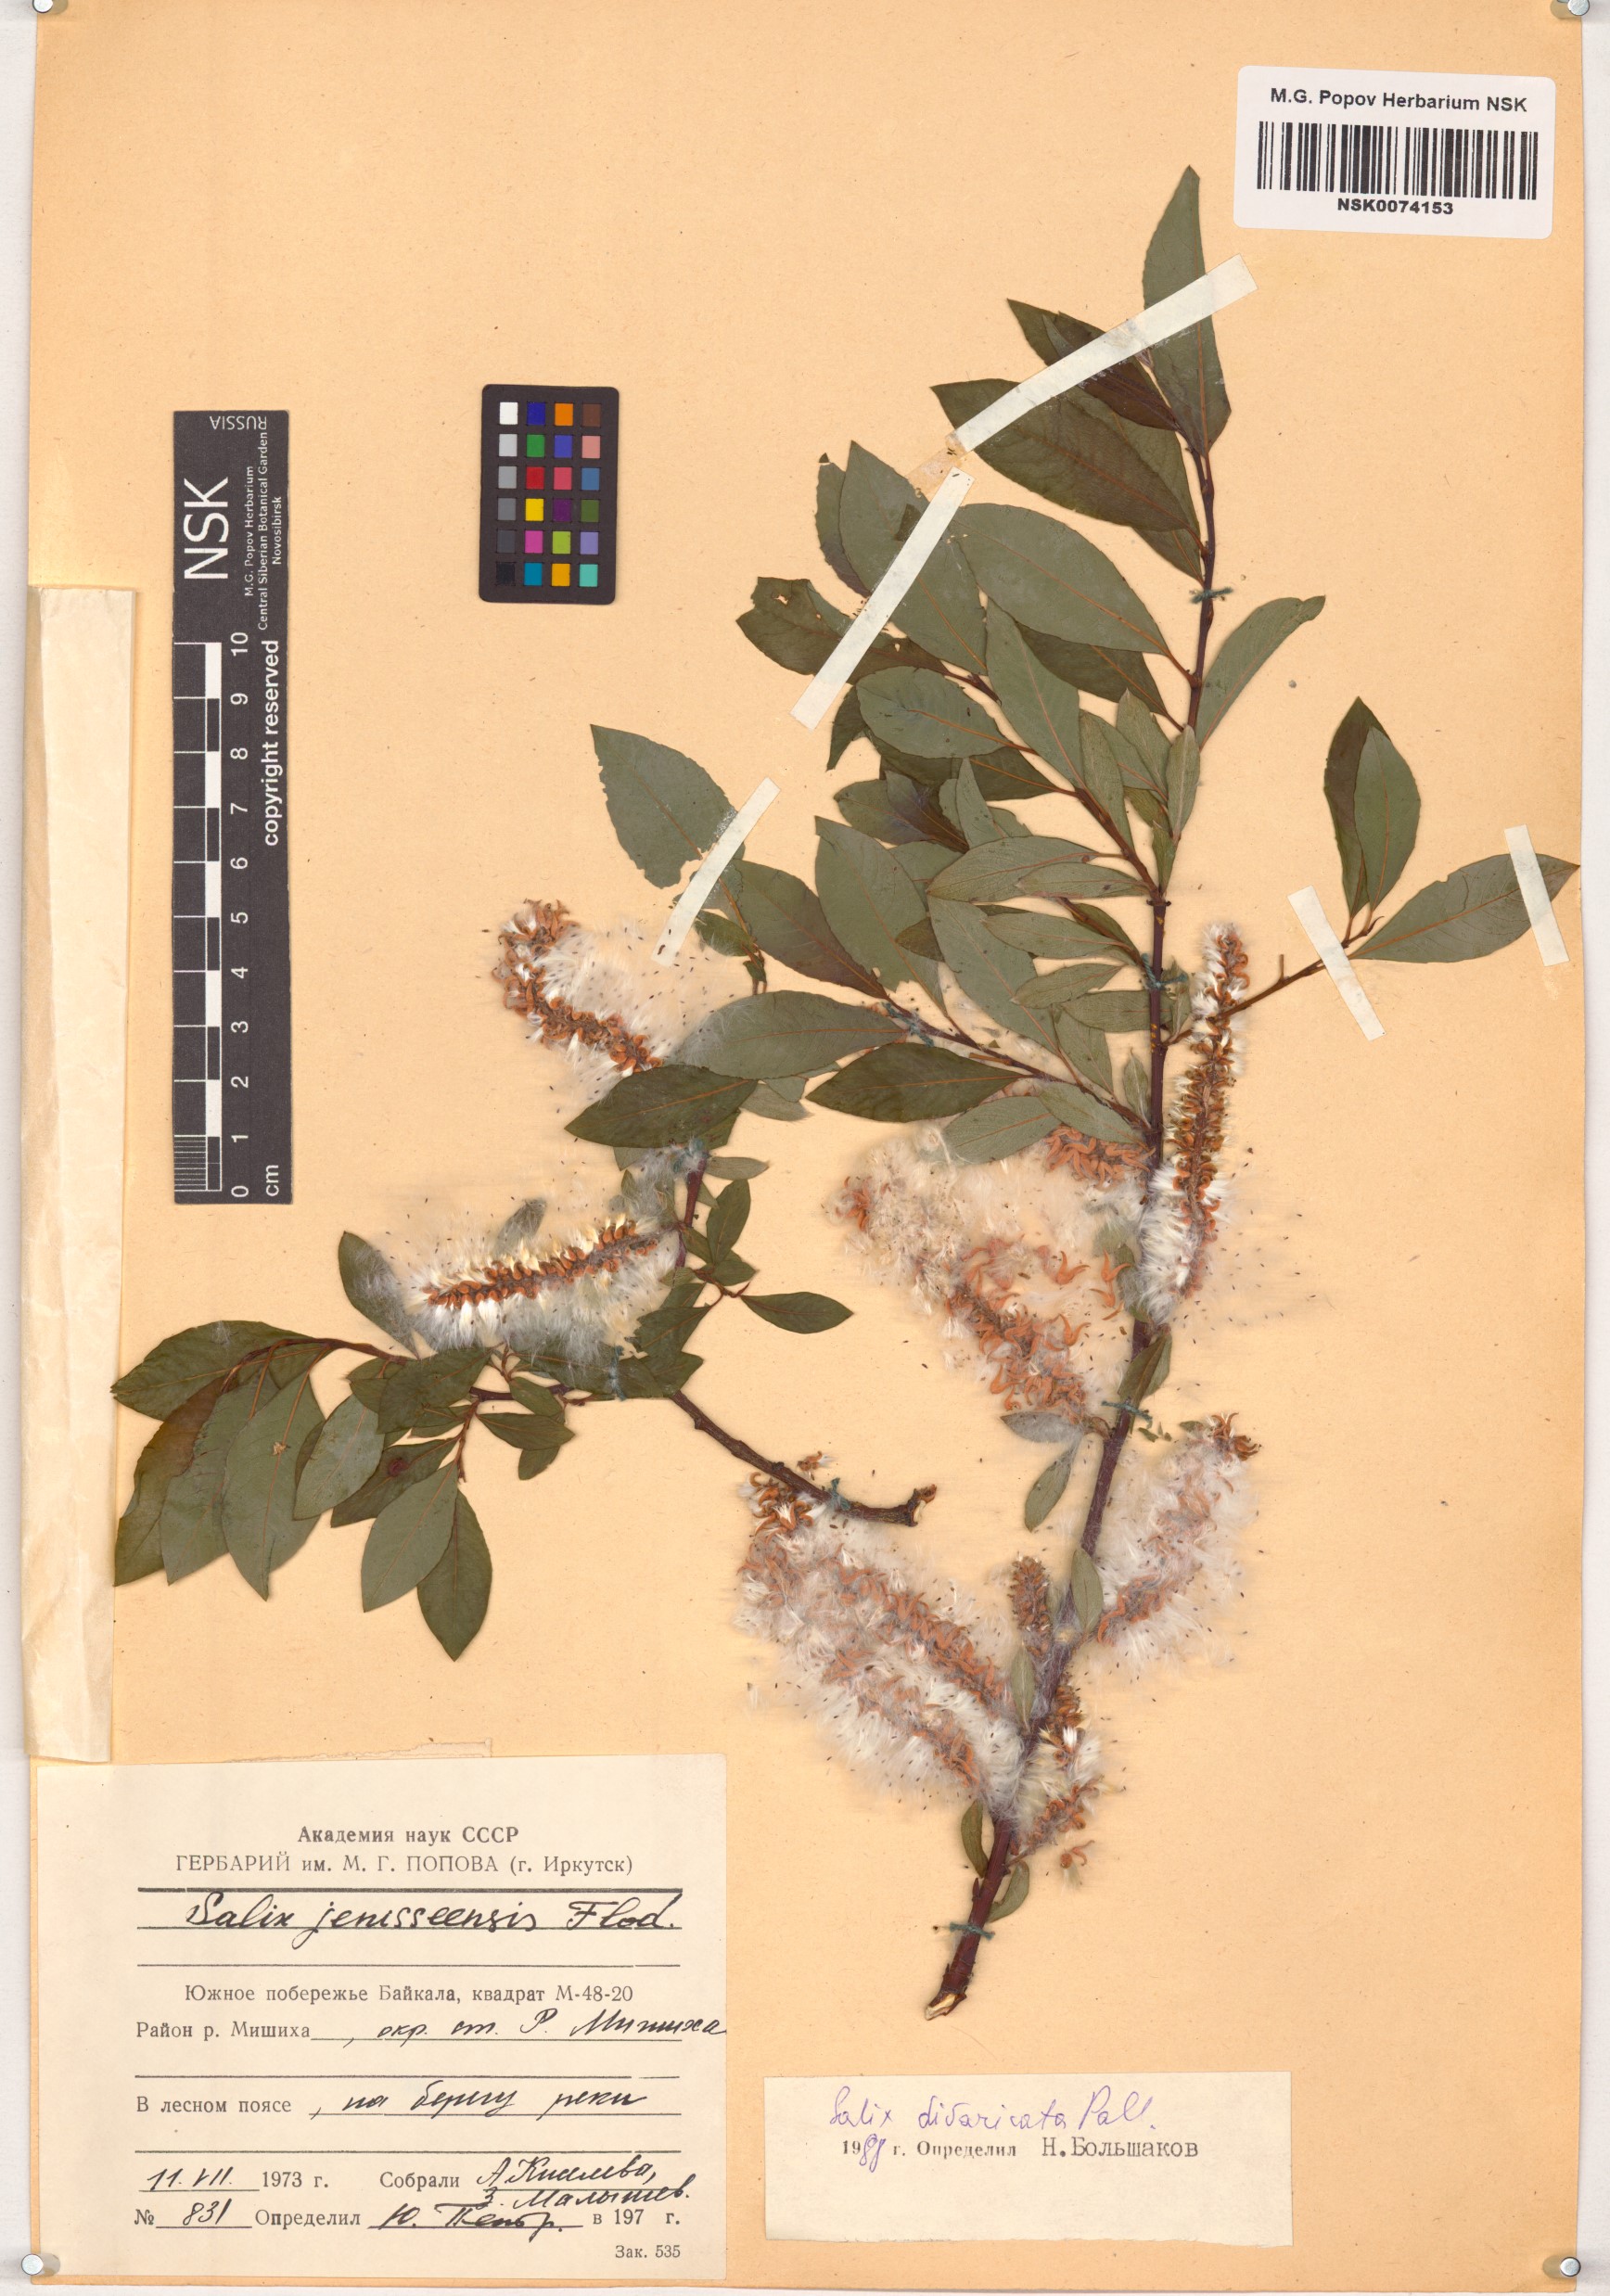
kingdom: Plantae
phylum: Tracheophyta
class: Magnoliopsida
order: Malpighiales
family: Salicaceae
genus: Salix
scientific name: Salix divaricata
